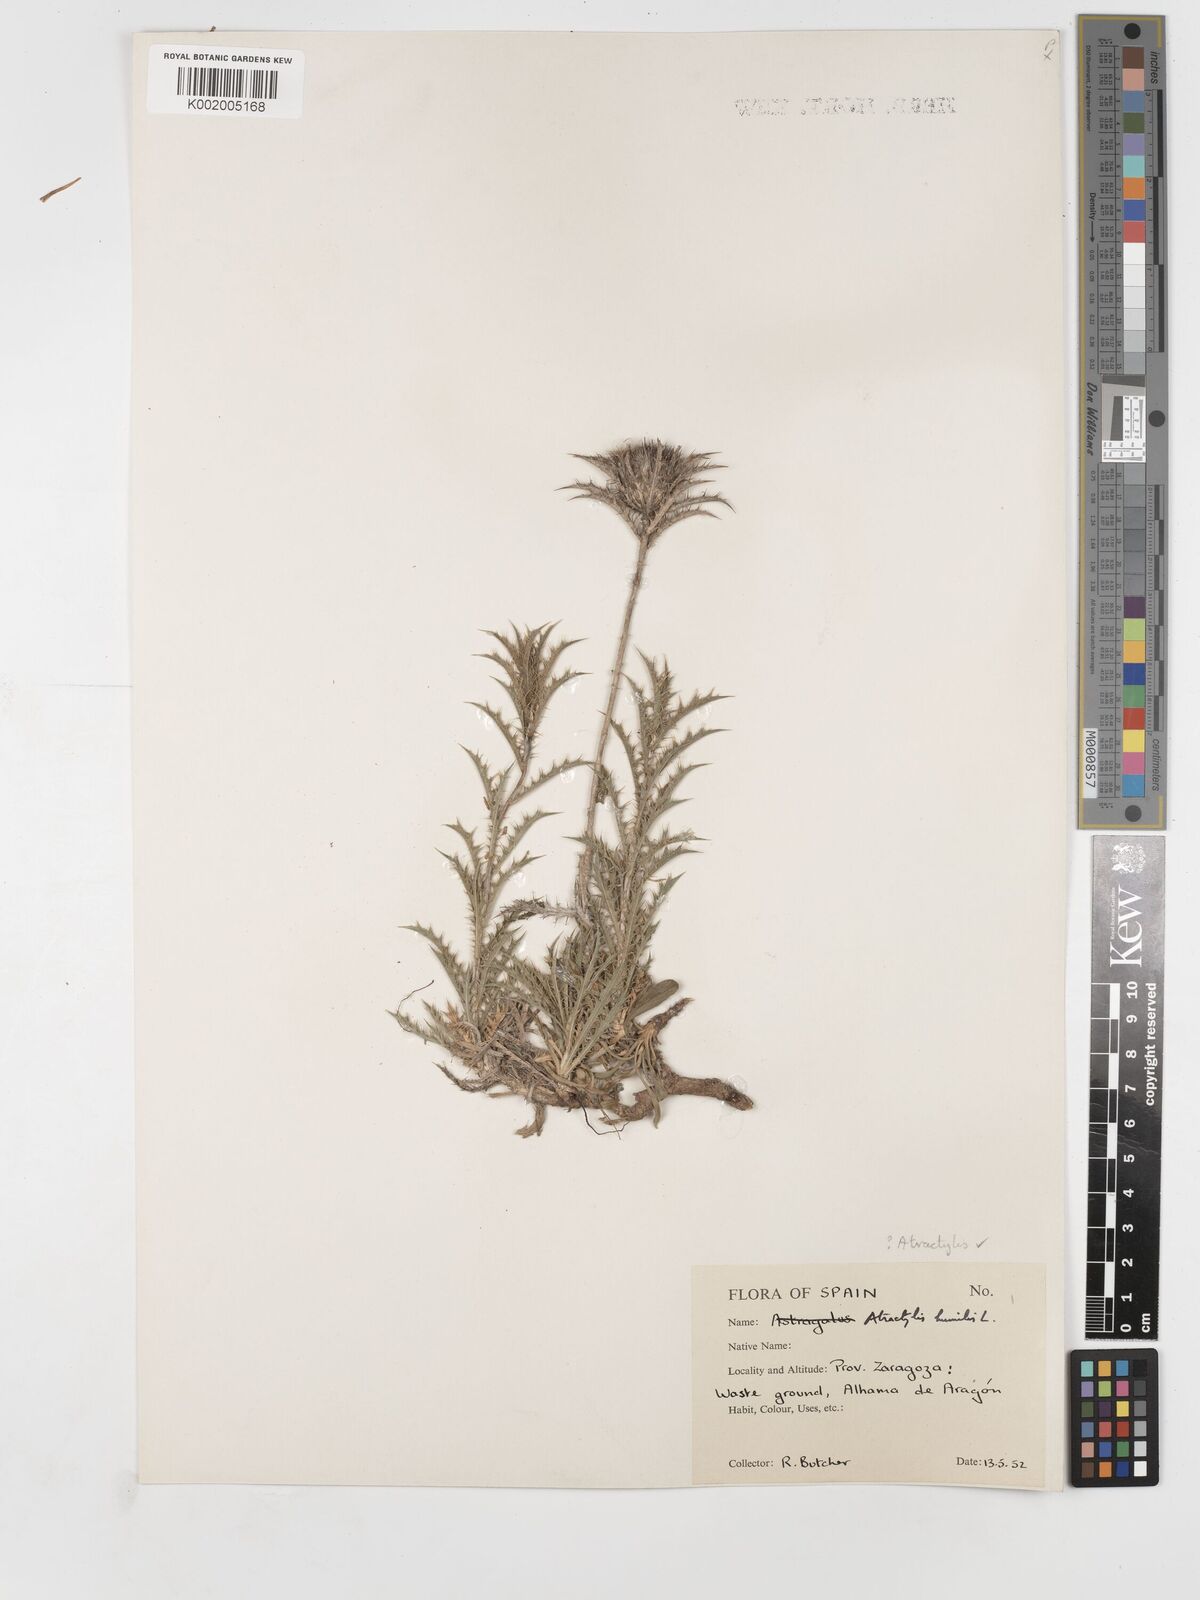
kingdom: Plantae
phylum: Tracheophyta
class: Magnoliopsida
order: Asterales
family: Asteraceae
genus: Atractylis
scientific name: Atractylis humilis
